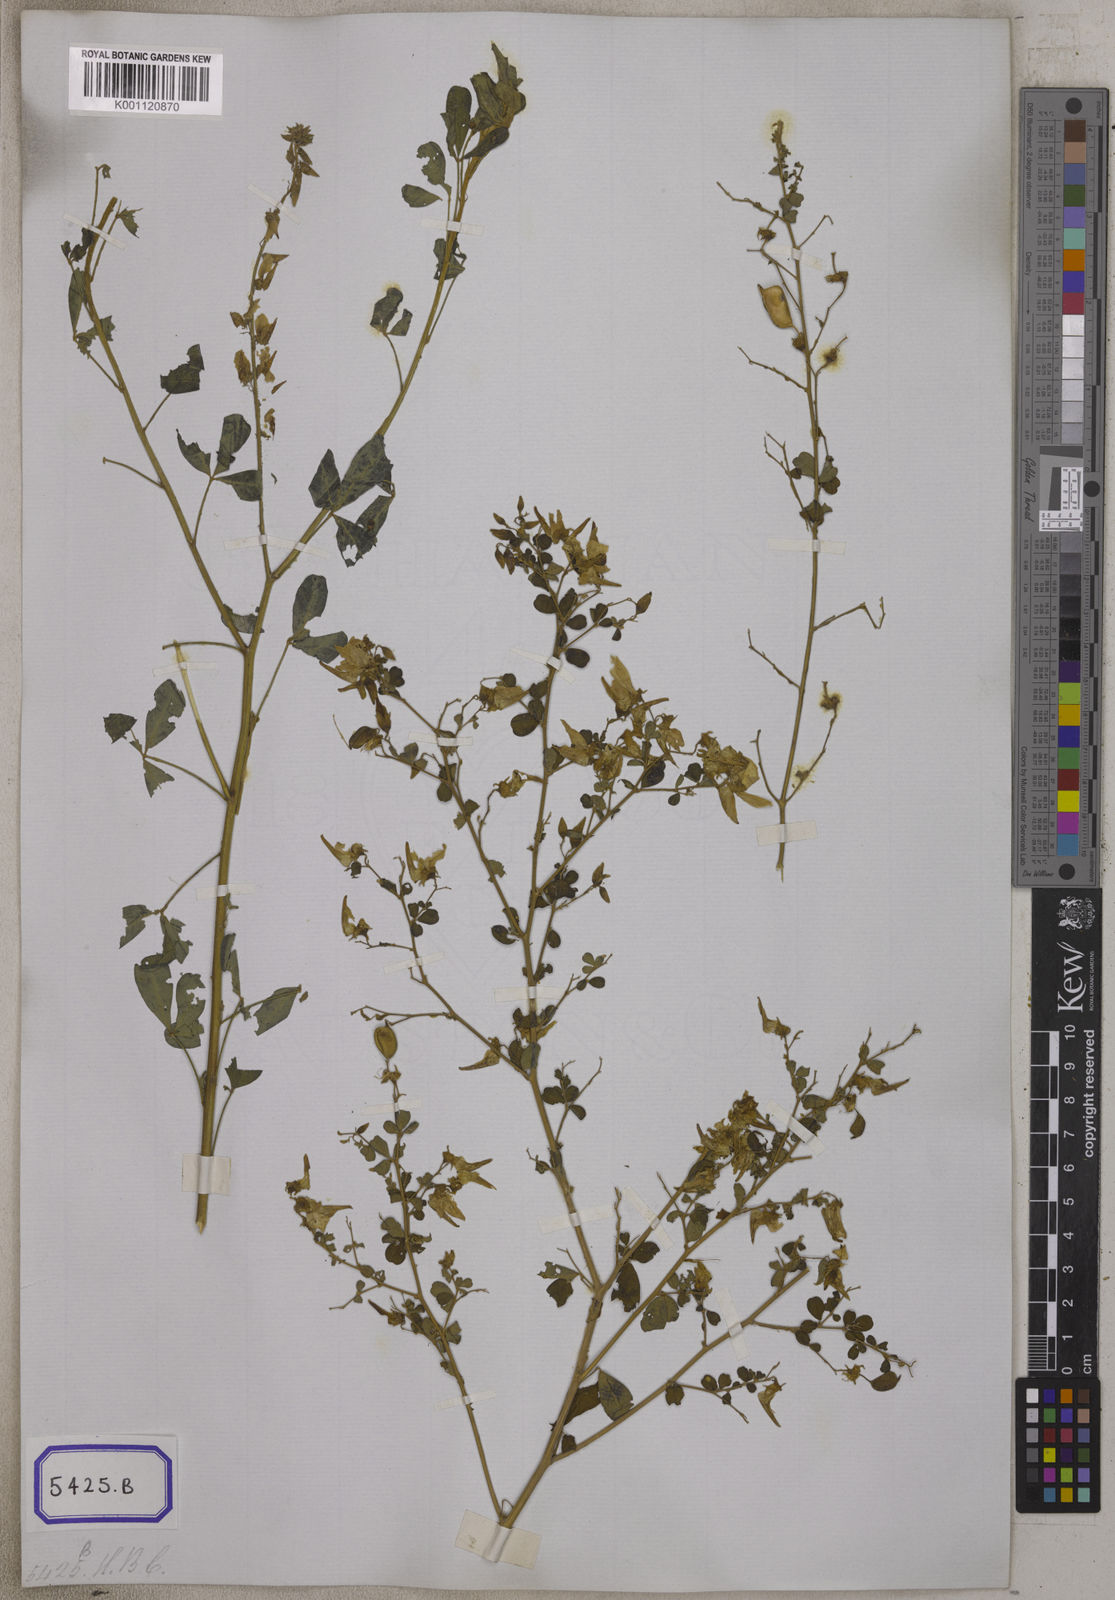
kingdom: Plantae
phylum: Tracheophyta
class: Magnoliopsida
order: Fabales
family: Fabaceae
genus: Crotalaria
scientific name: Crotalaria
